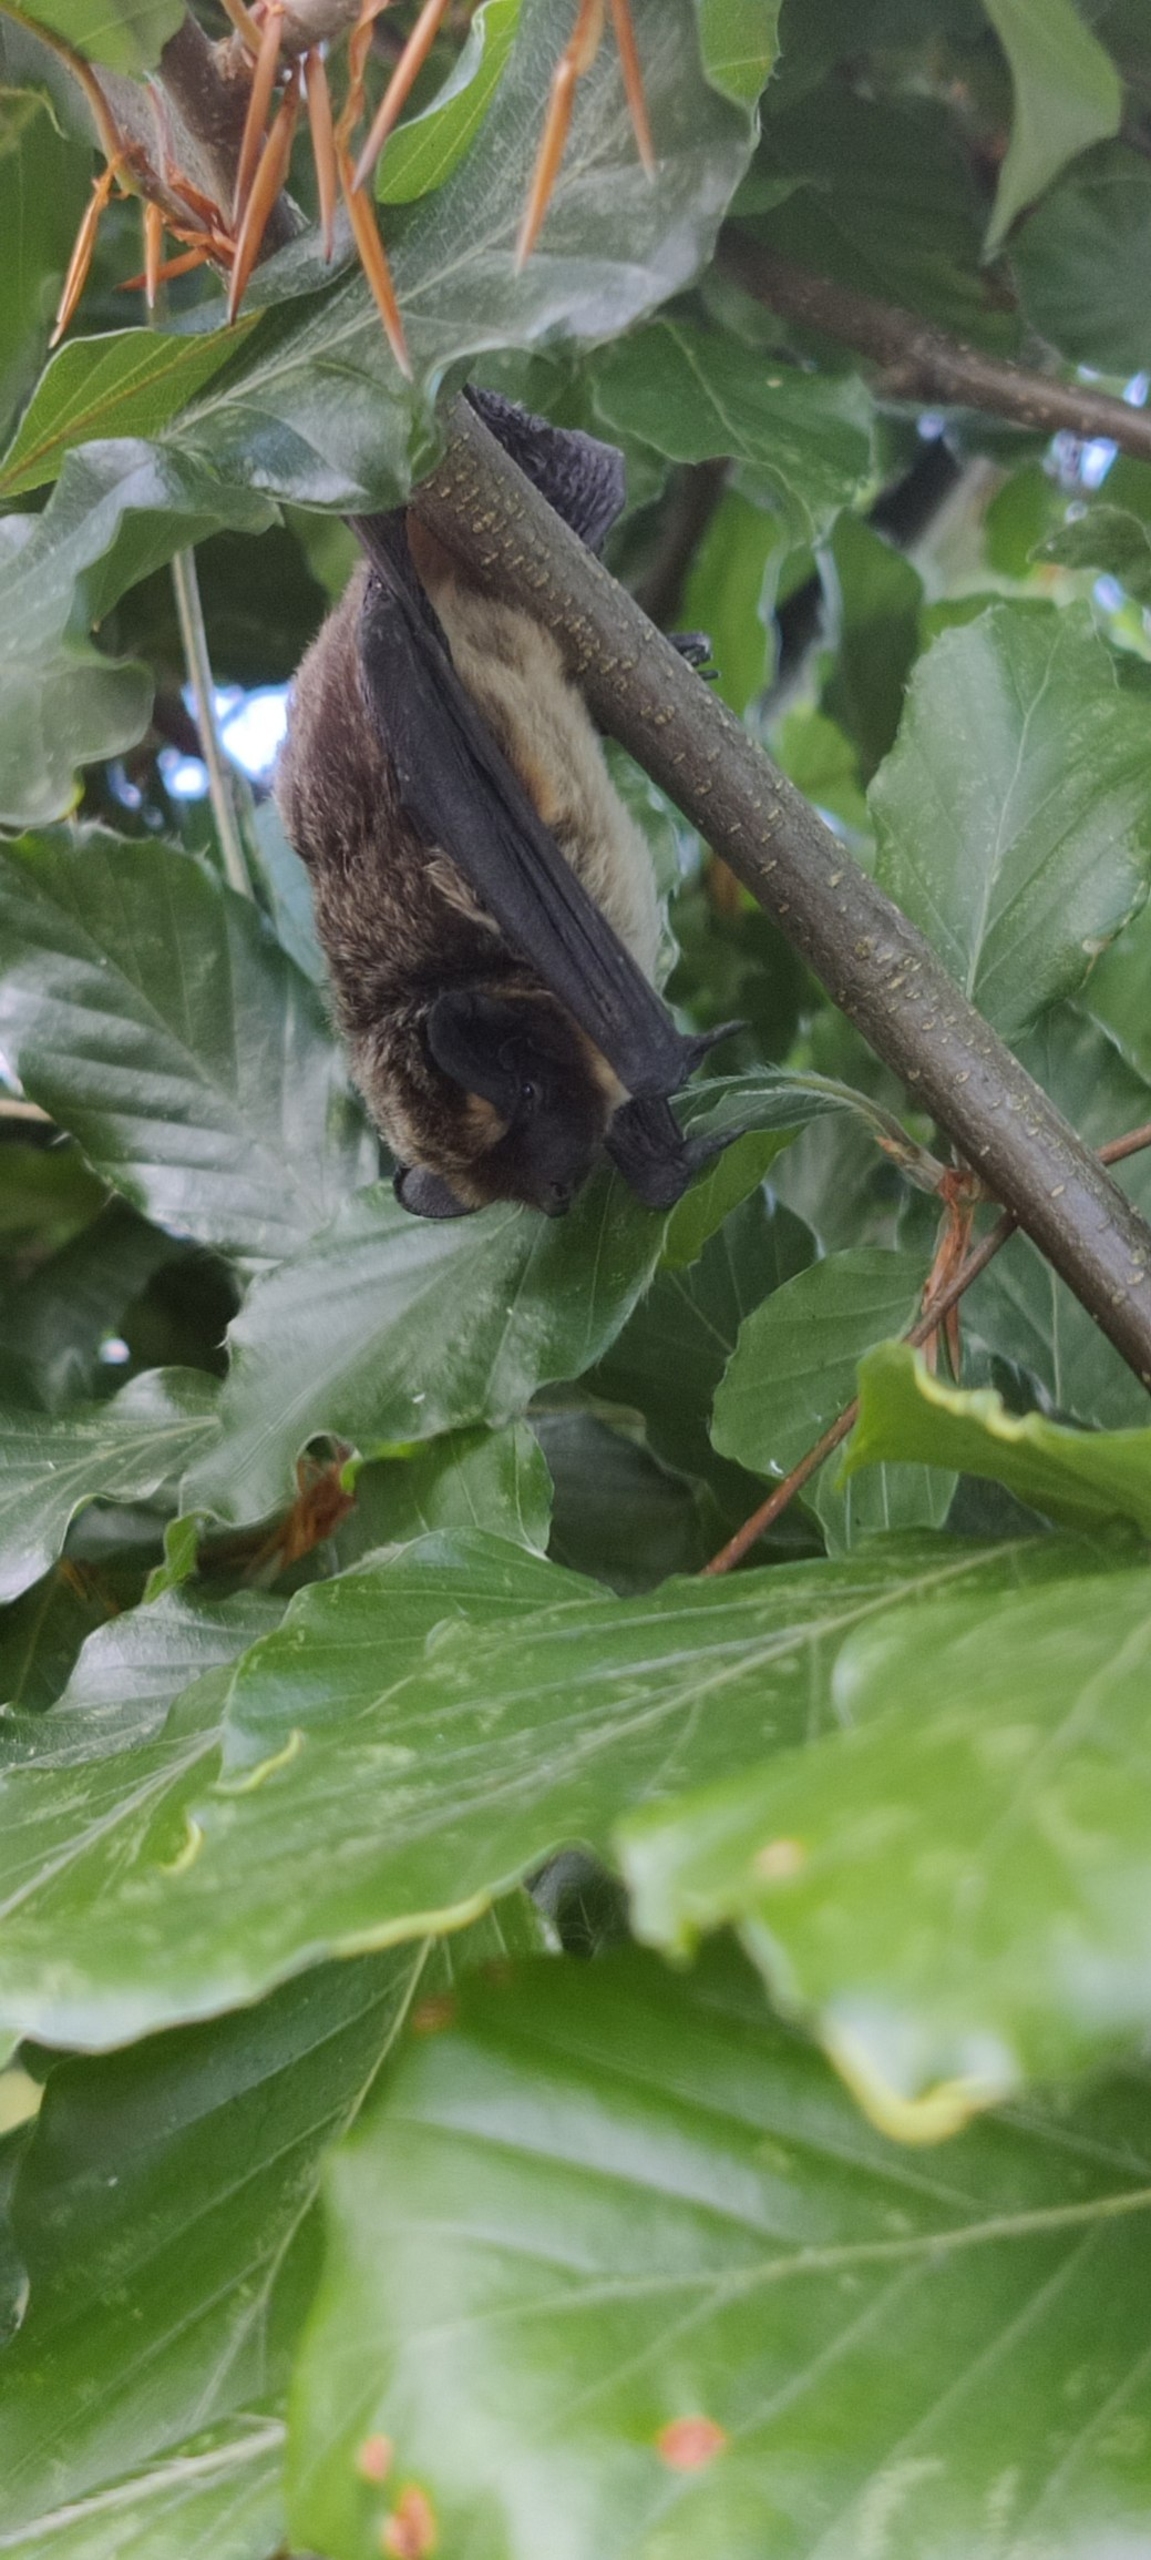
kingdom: Animalia
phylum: Chordata
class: Mammalia
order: Chiroptera
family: Vespertilionidae
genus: Vespertilio
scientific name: Vespertilio murinus
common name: Skimmelflagermus
